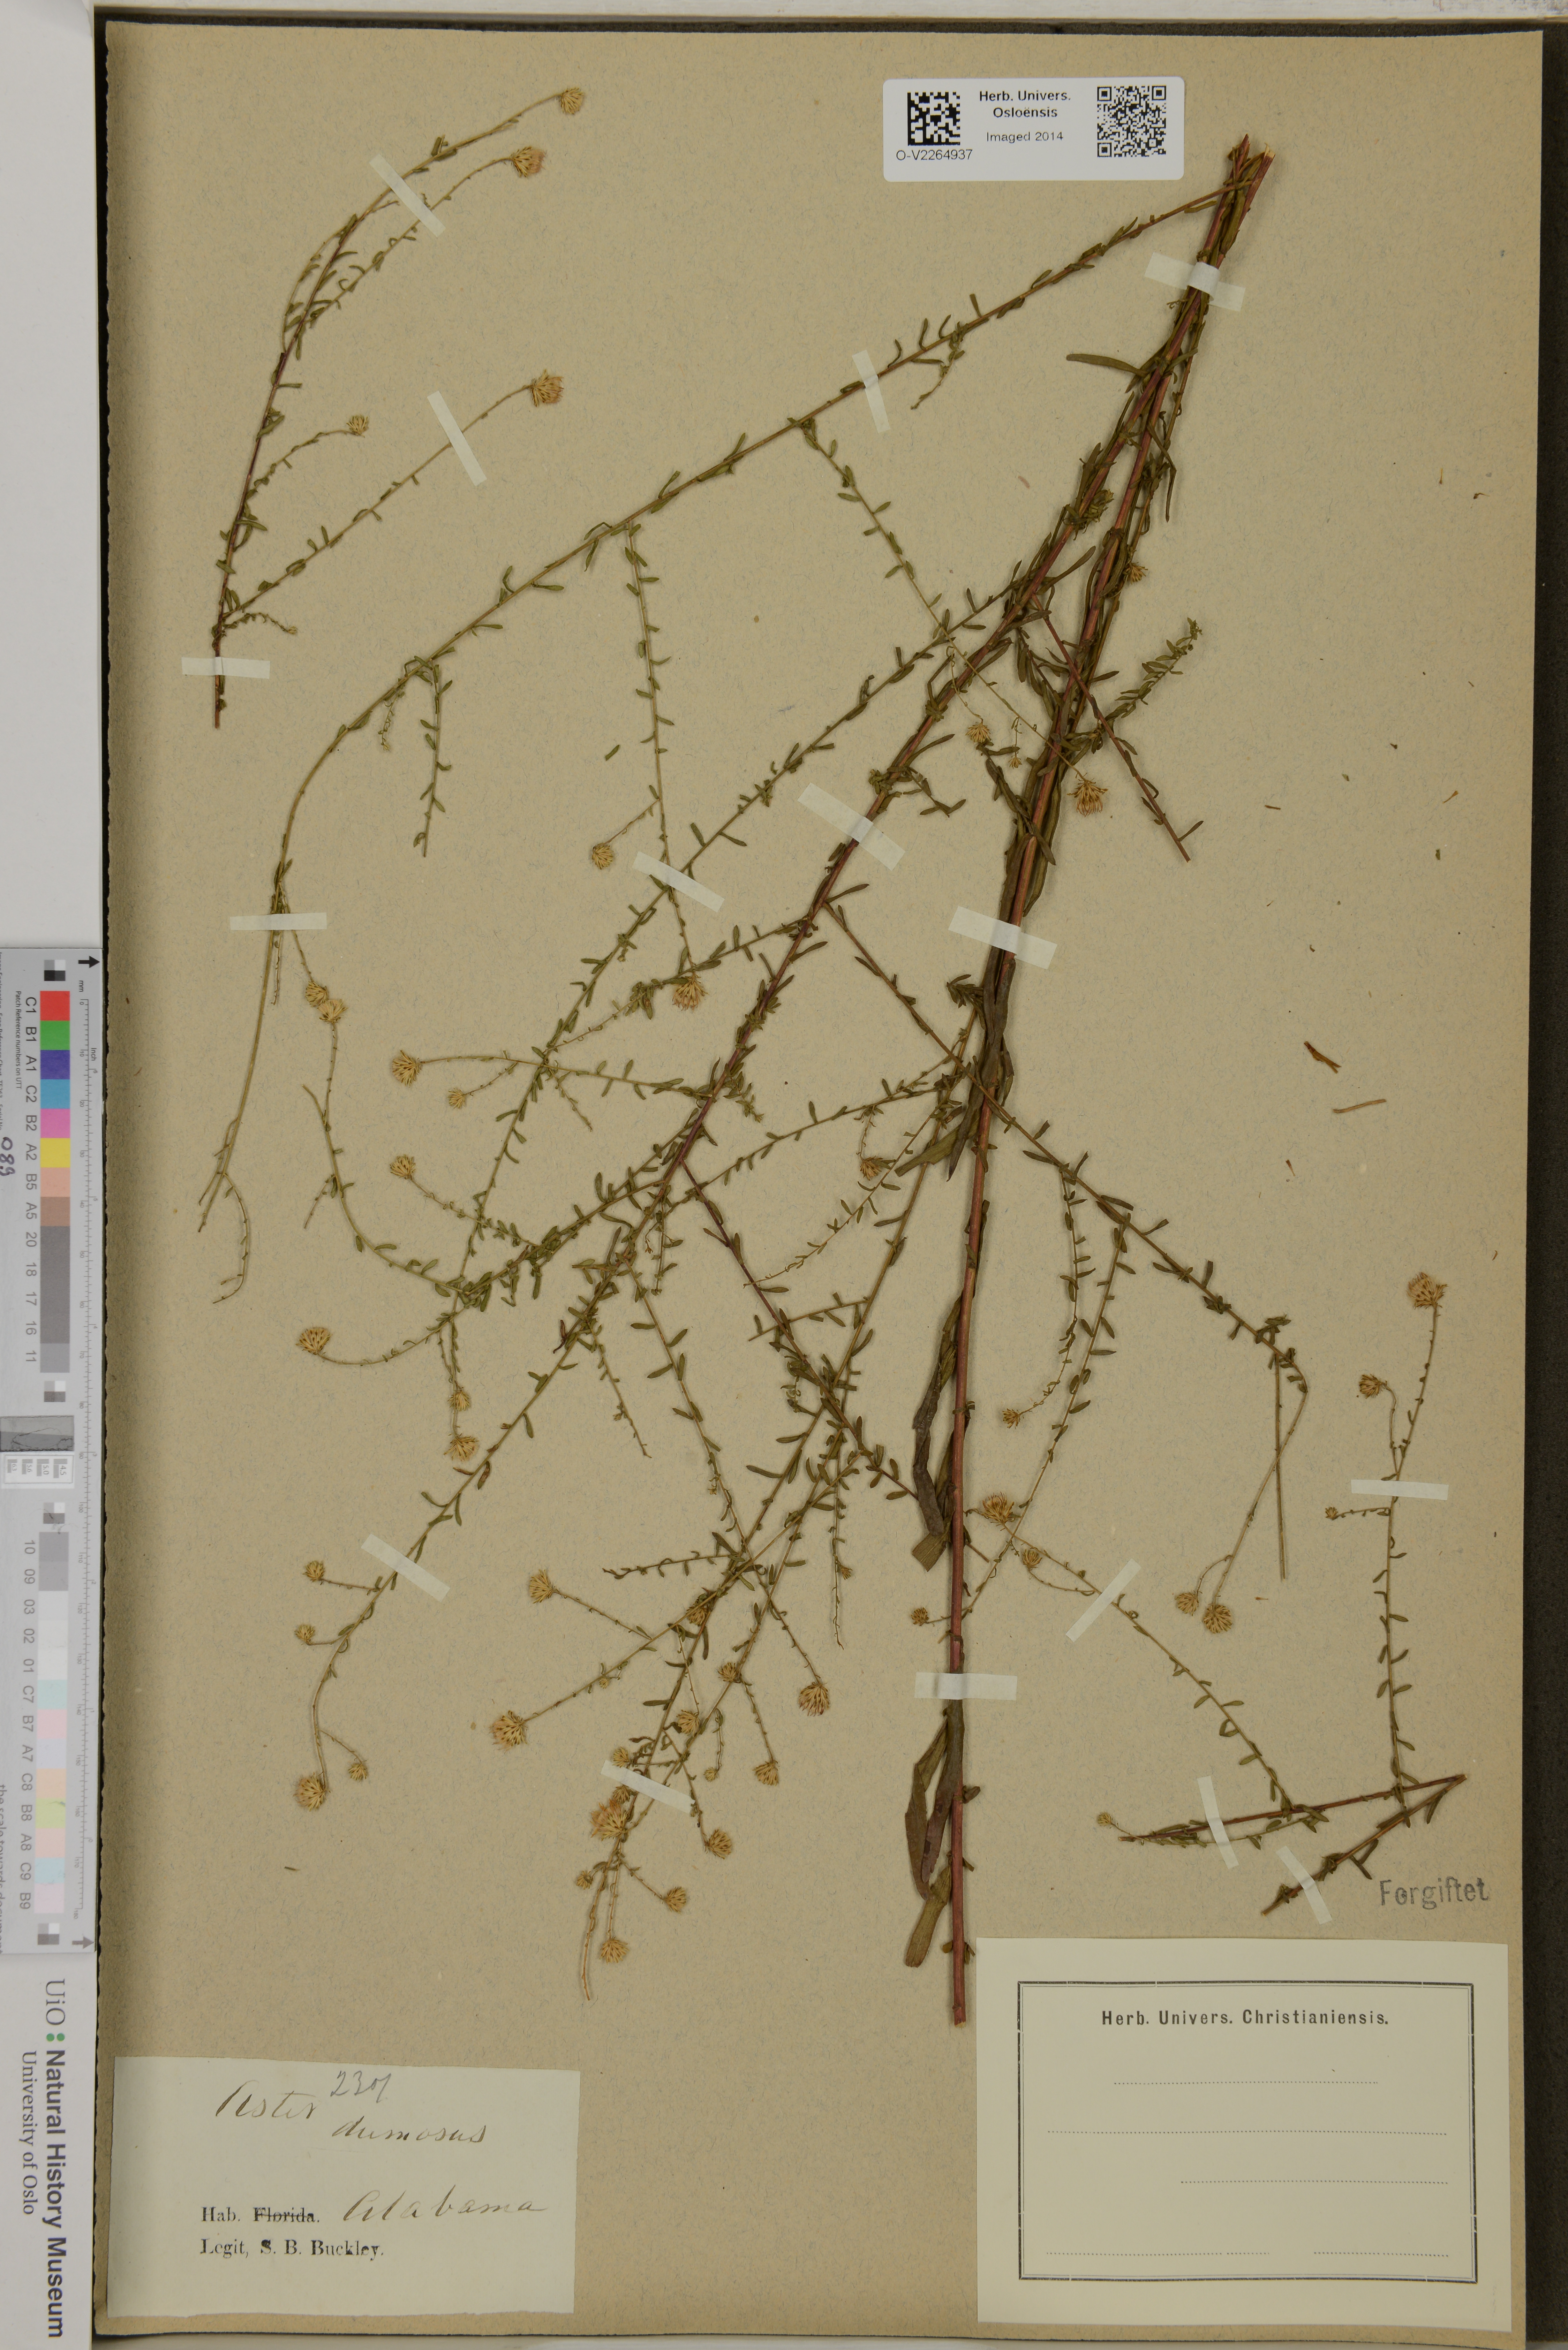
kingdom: Plantae
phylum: Tracheophyta
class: Magnoliopsida
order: Asterales
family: Asteraceae
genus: Aster
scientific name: Aster dumosus
